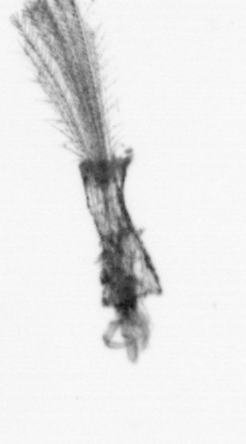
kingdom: Animalia
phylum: Arthropoda
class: Maxillopoda
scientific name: Maxillopoda
